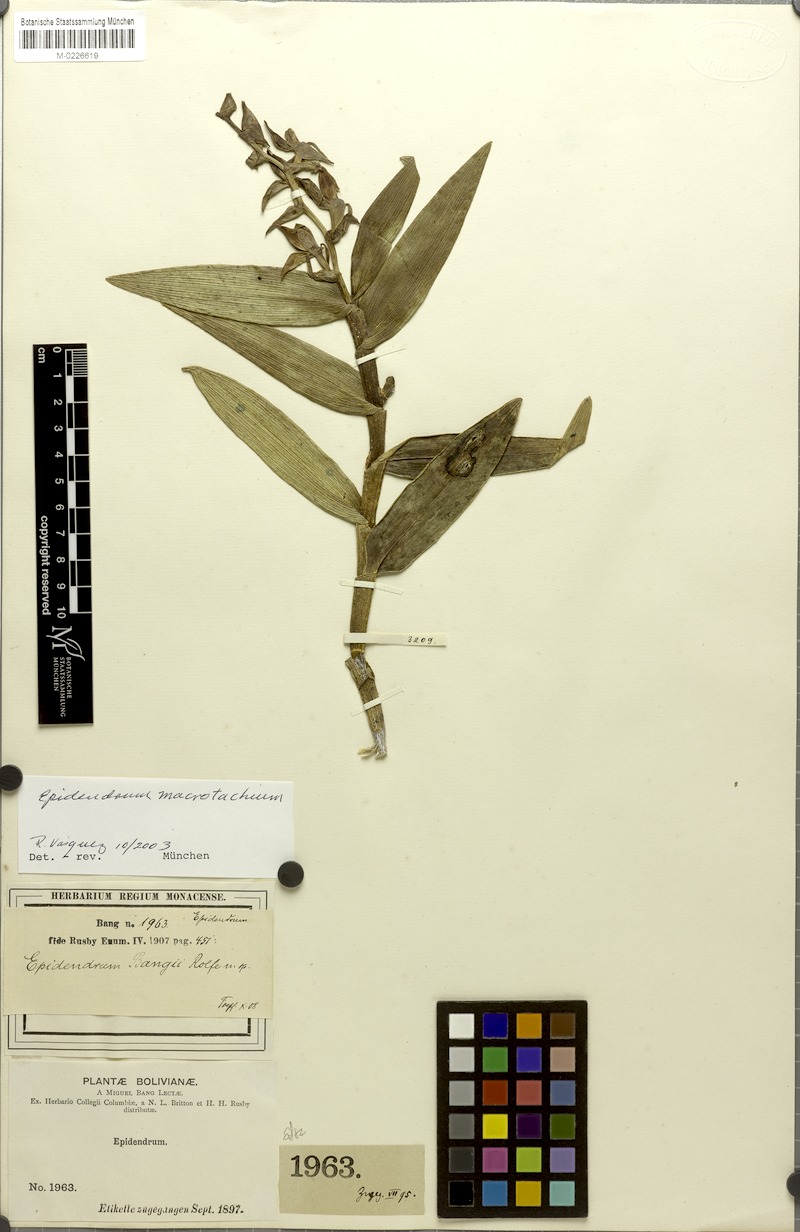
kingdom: Plantae
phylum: Tracheophyta
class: Liliopsida
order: Asparagales
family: Orchidaceae
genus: Epidendrum
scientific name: Epidendrum chondrochilum
